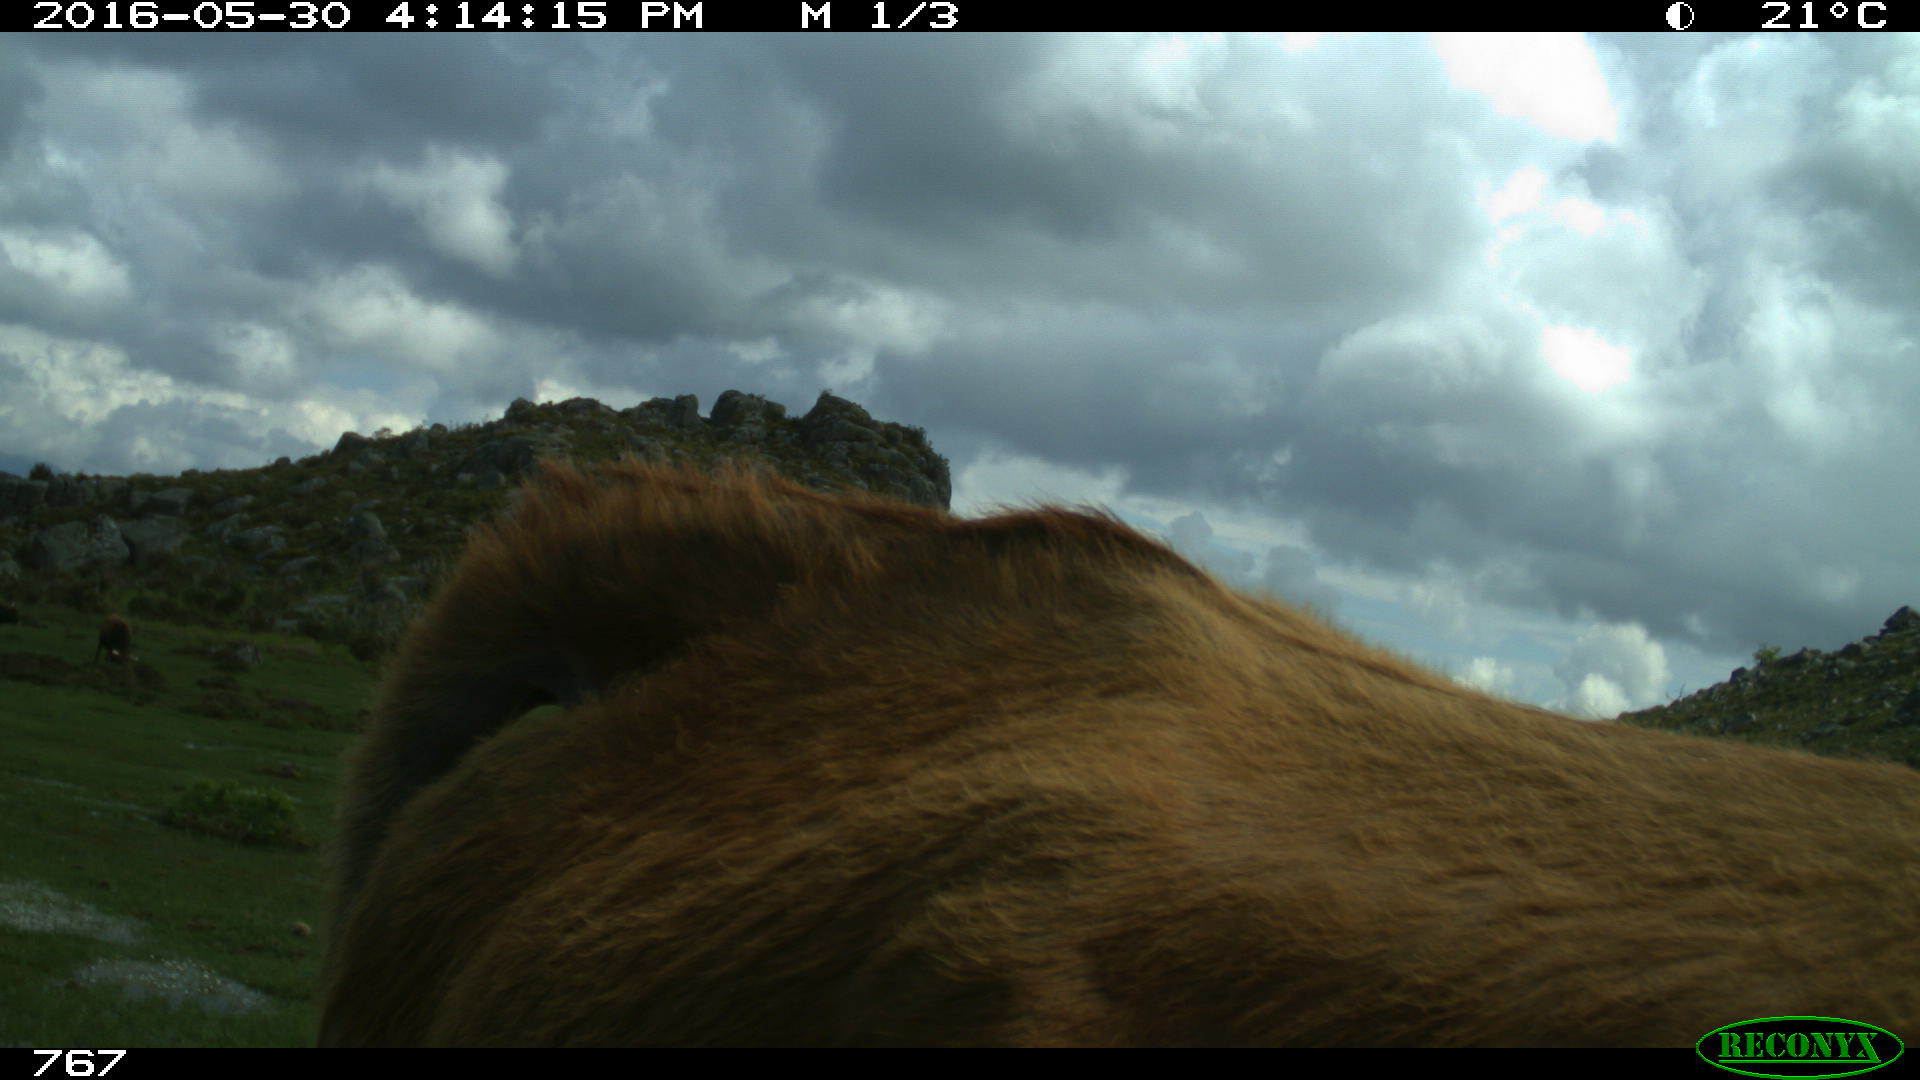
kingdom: Animalia
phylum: Chordata
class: Mammalia
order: Artiodactyla
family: Bovidae
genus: Bos
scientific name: Bos taurus
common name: Domesticated cattle
